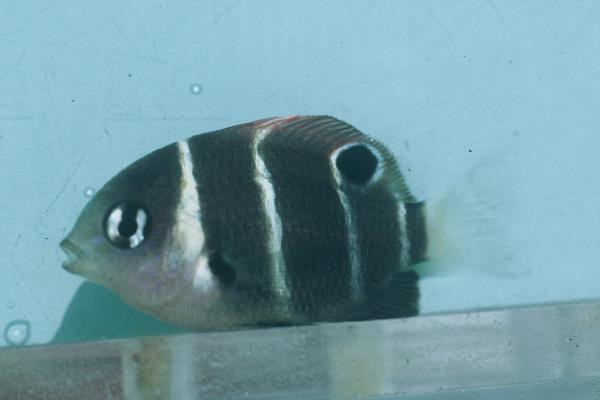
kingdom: Animalia
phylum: Chordata
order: Perciformes
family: Pomacentridae
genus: Plectroglyphidodon
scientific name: Plectroglyphidodon phoenixensis
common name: Phoenix damsel
